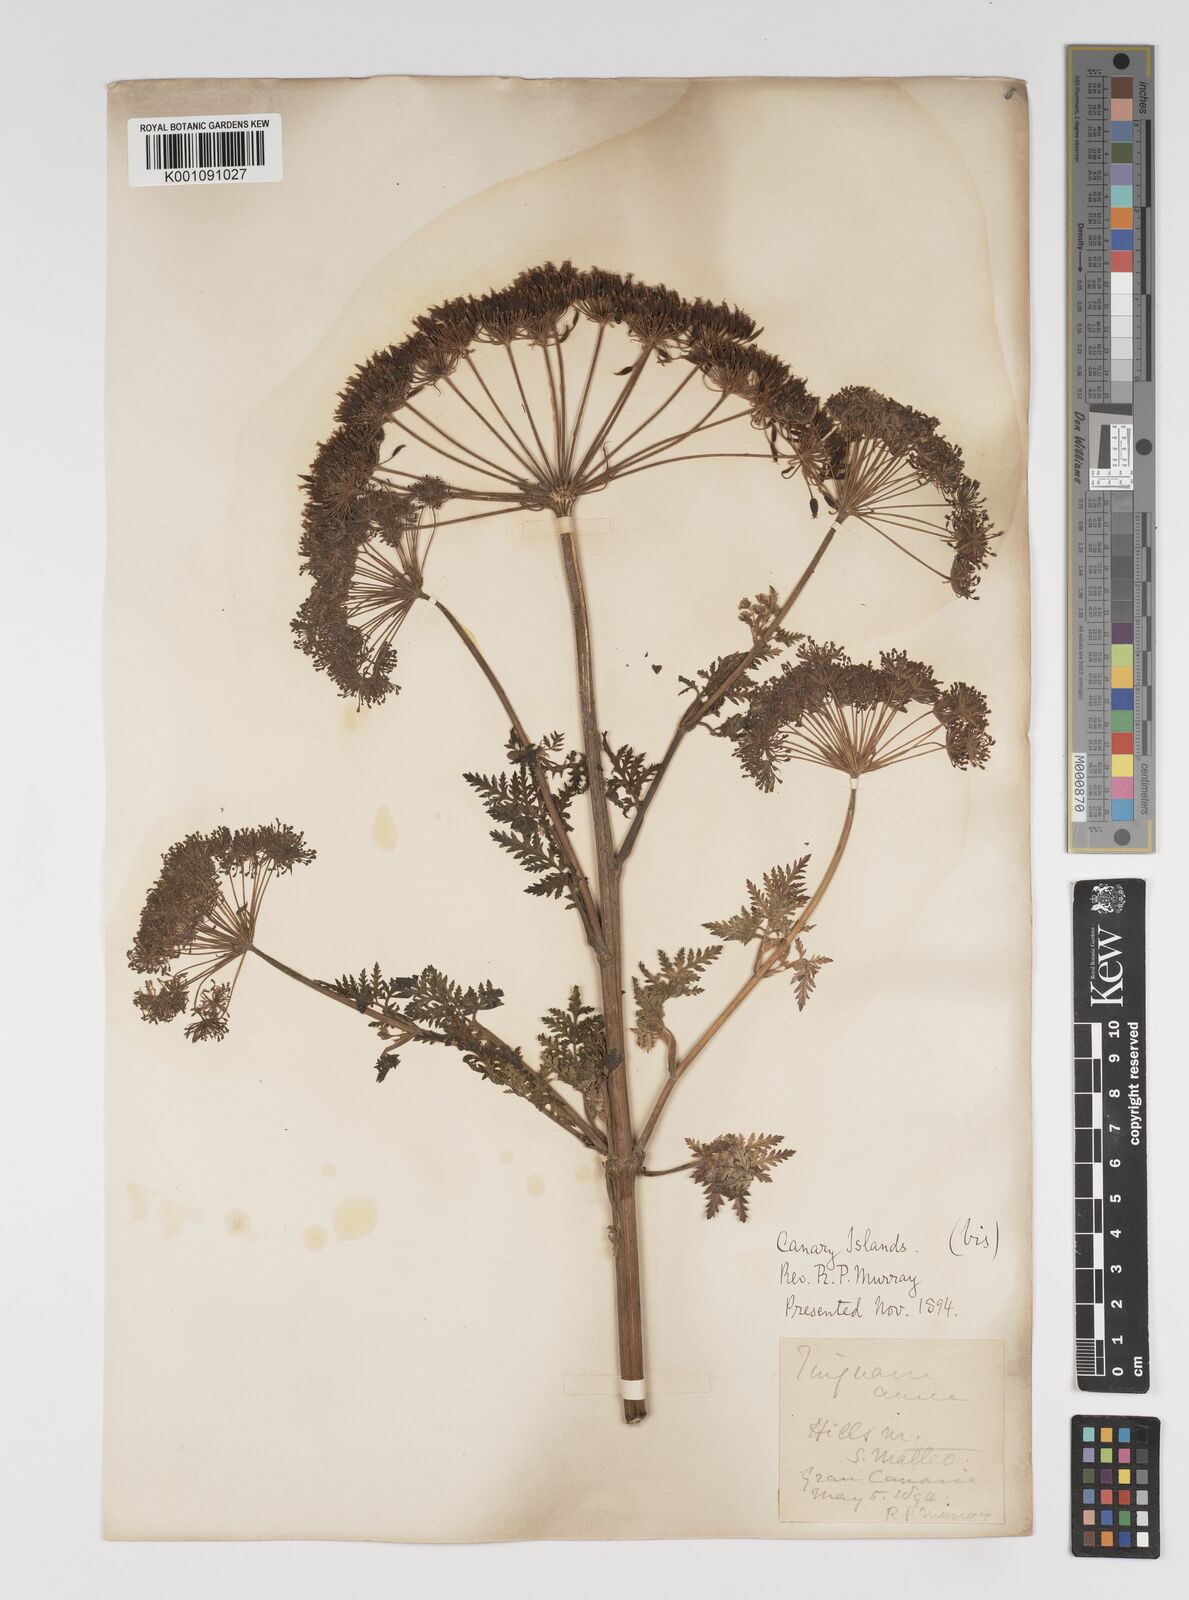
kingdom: Plantae
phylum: Tracheophyta
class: Magnoliopsida
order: Apiales
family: Apiaceae
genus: Athamanta
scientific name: Athamanta montana
